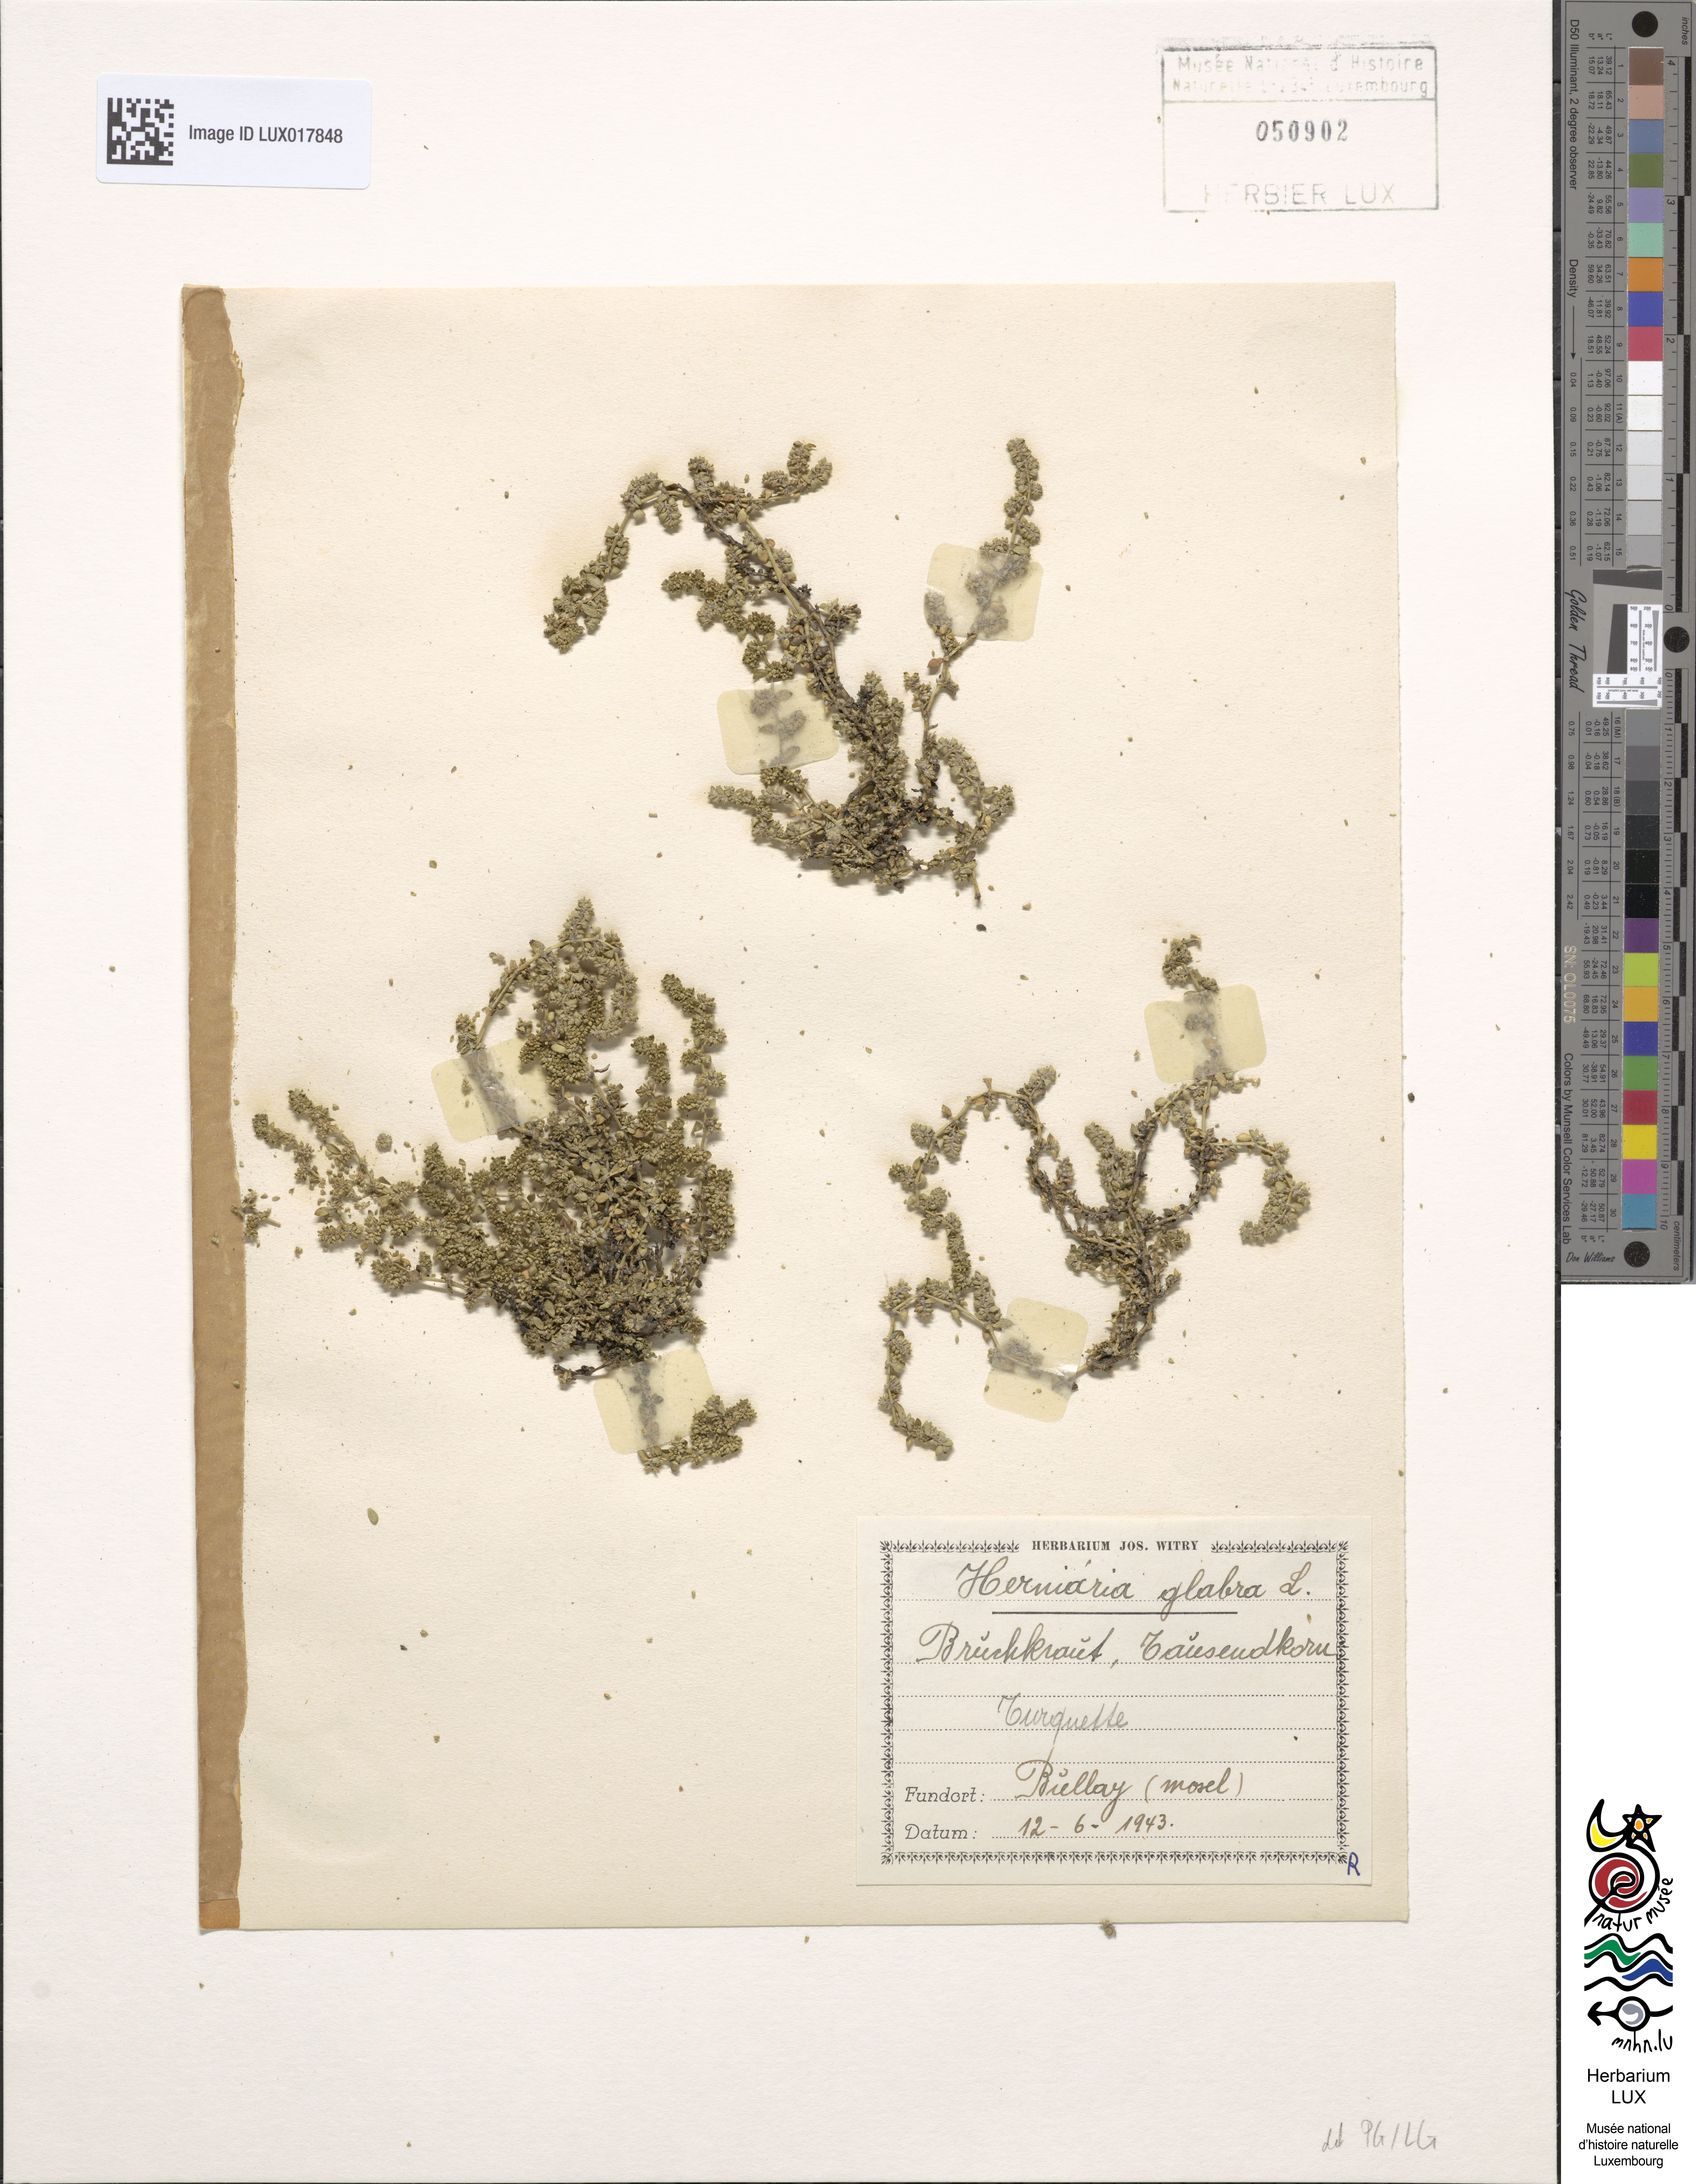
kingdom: Plantae
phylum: Tracheophyta
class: Magnoliopsida
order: Caryophyllales
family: Caryophyllaceae
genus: Herniaria
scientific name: Herniaria glabra
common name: Smooth rupturewort
